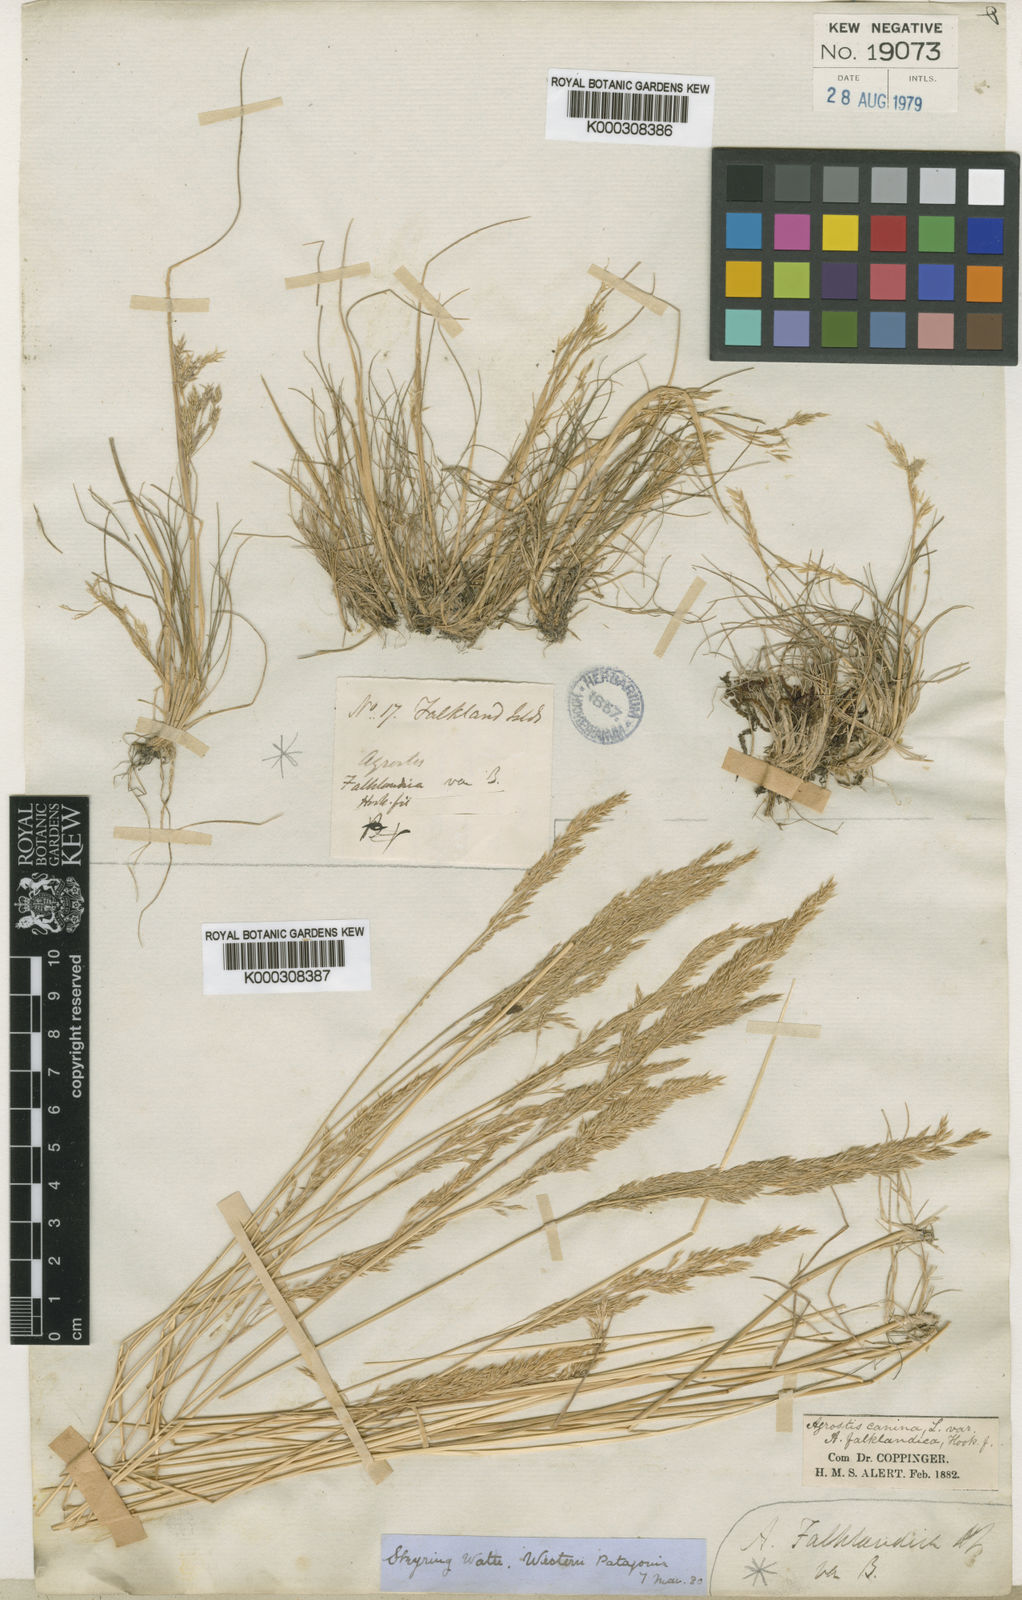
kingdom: Plantae
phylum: Tracheophyta
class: Liliopsida
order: Poales
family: Poaceae
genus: Agrostis
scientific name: Agrostis meyenii
